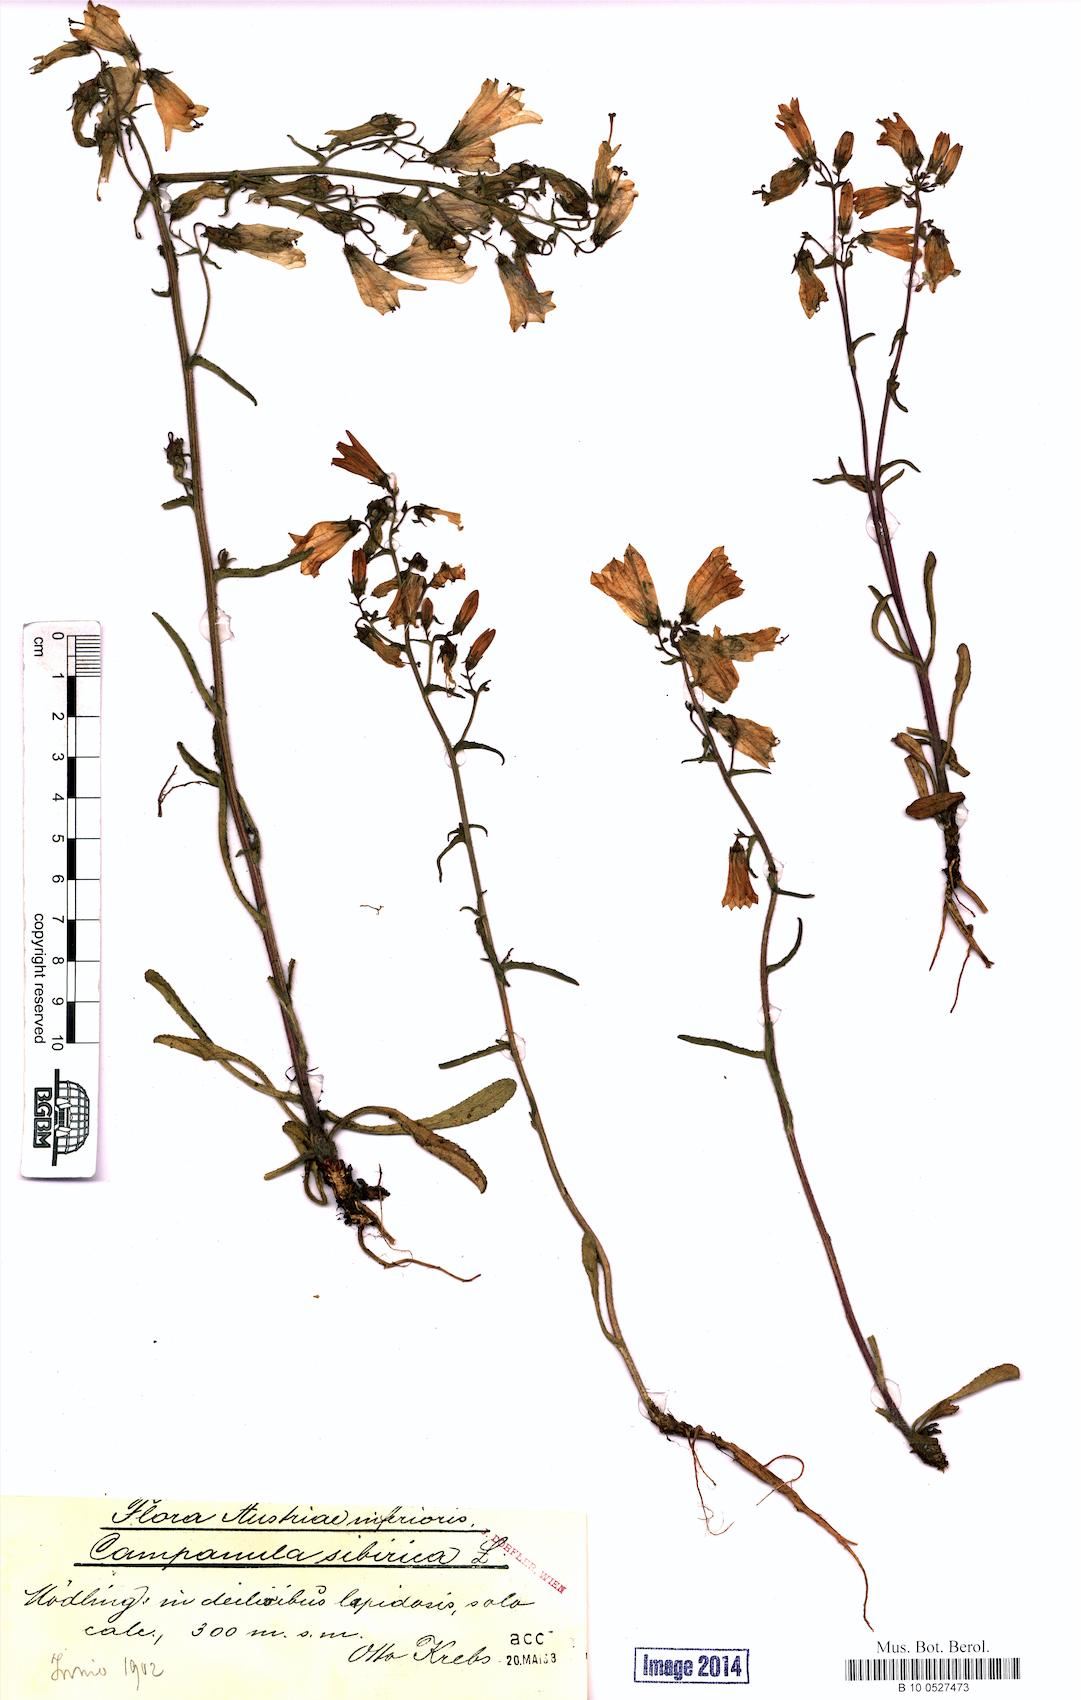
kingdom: Plantae
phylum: Tracheophyta
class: Magnoliopsida
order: Asterales
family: Campanulaceae
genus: Campanula
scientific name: Campanula sibirica
